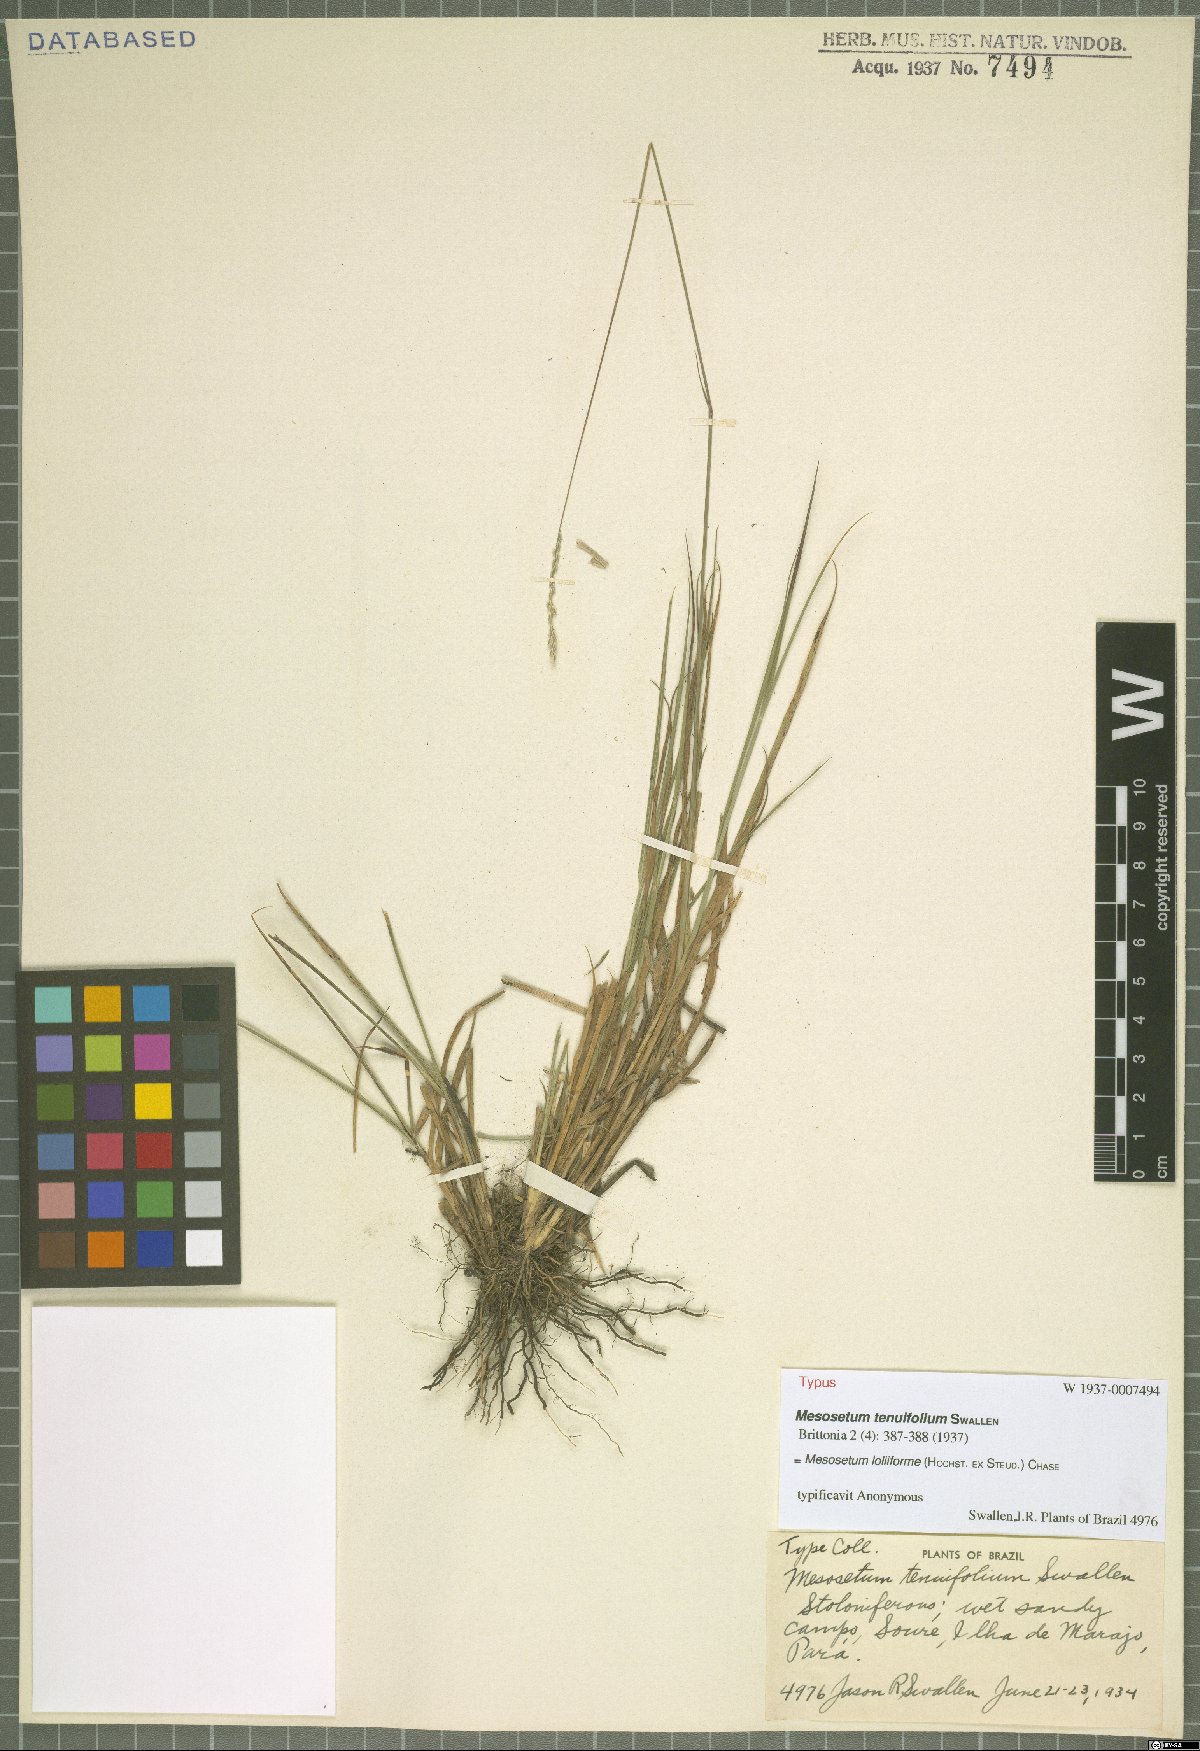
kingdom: Plantae
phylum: Tracheophyta
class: Liliopsida
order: Poales
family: Poaceae
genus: Mesosetum
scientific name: Mesosetum loliiforme
